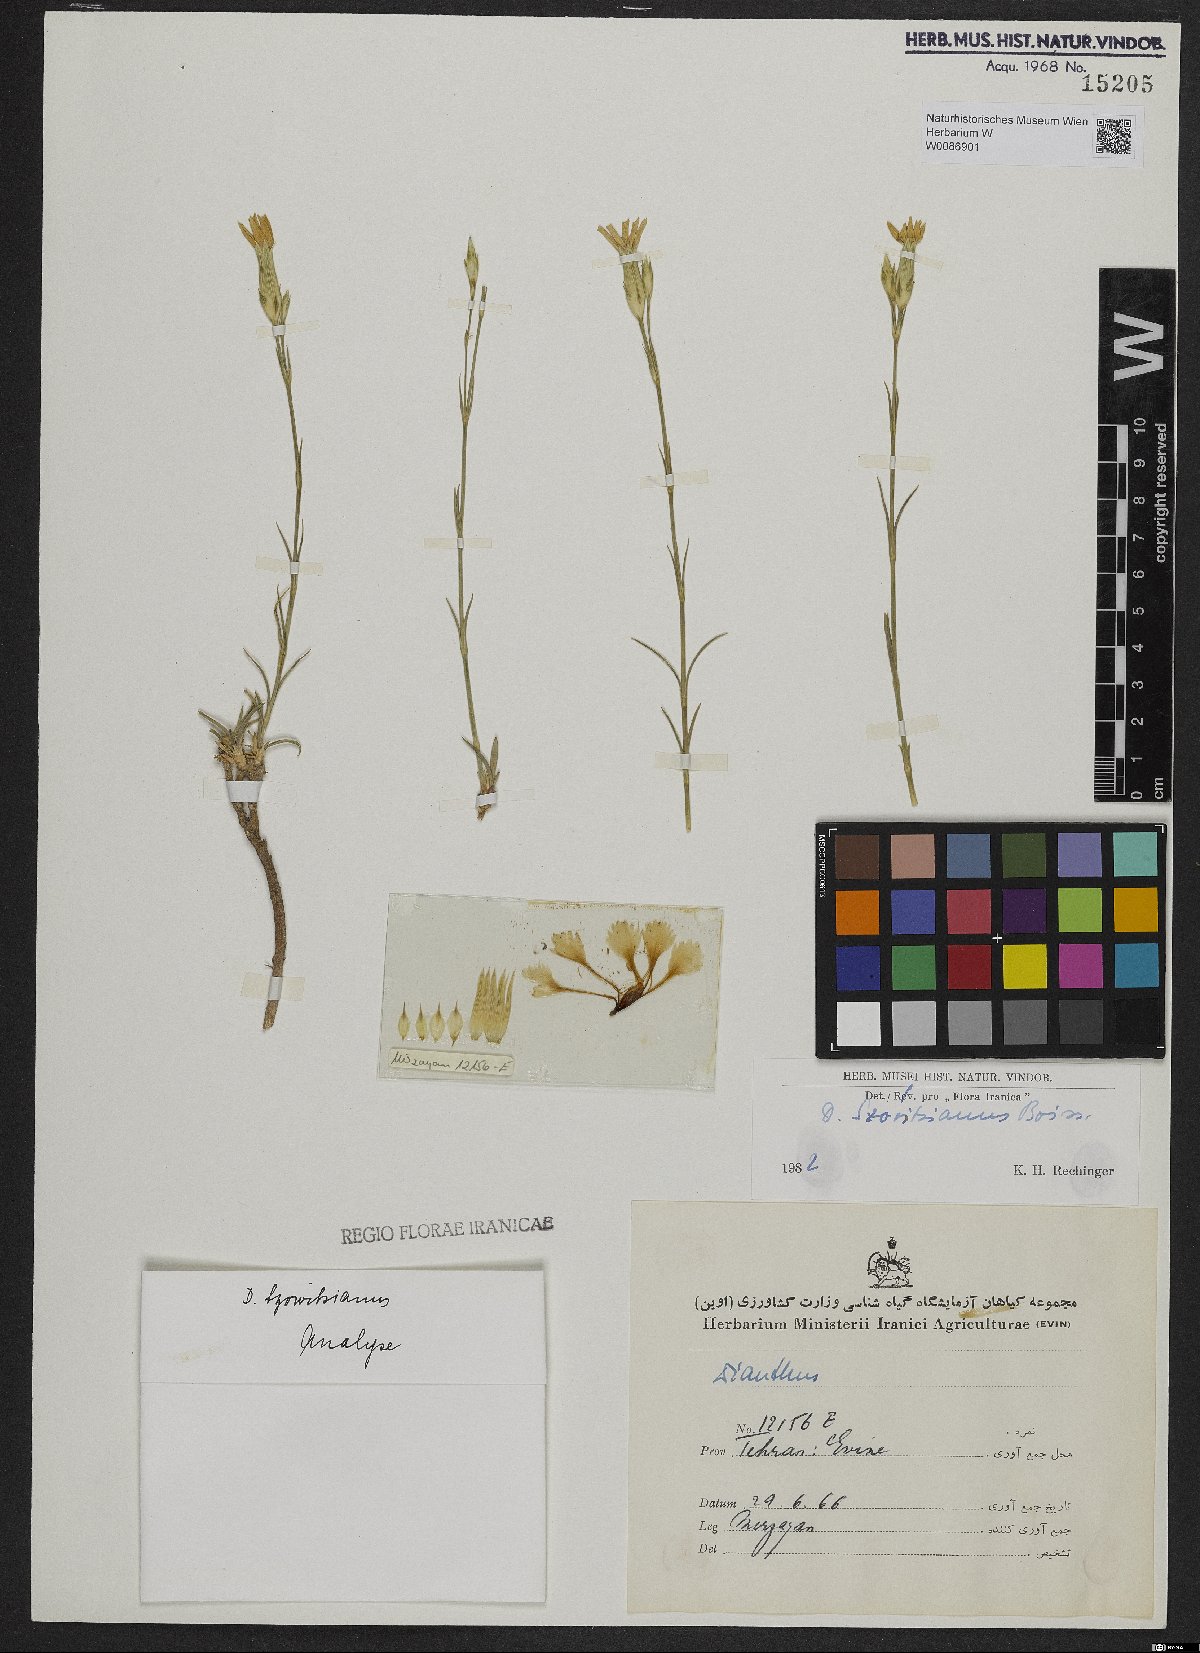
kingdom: Plantae
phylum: Tracheophyta
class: Magnoliopsida
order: Caryophyllales
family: Caryophyllaceae
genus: Dianthus
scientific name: Dianthus szowitsianus
